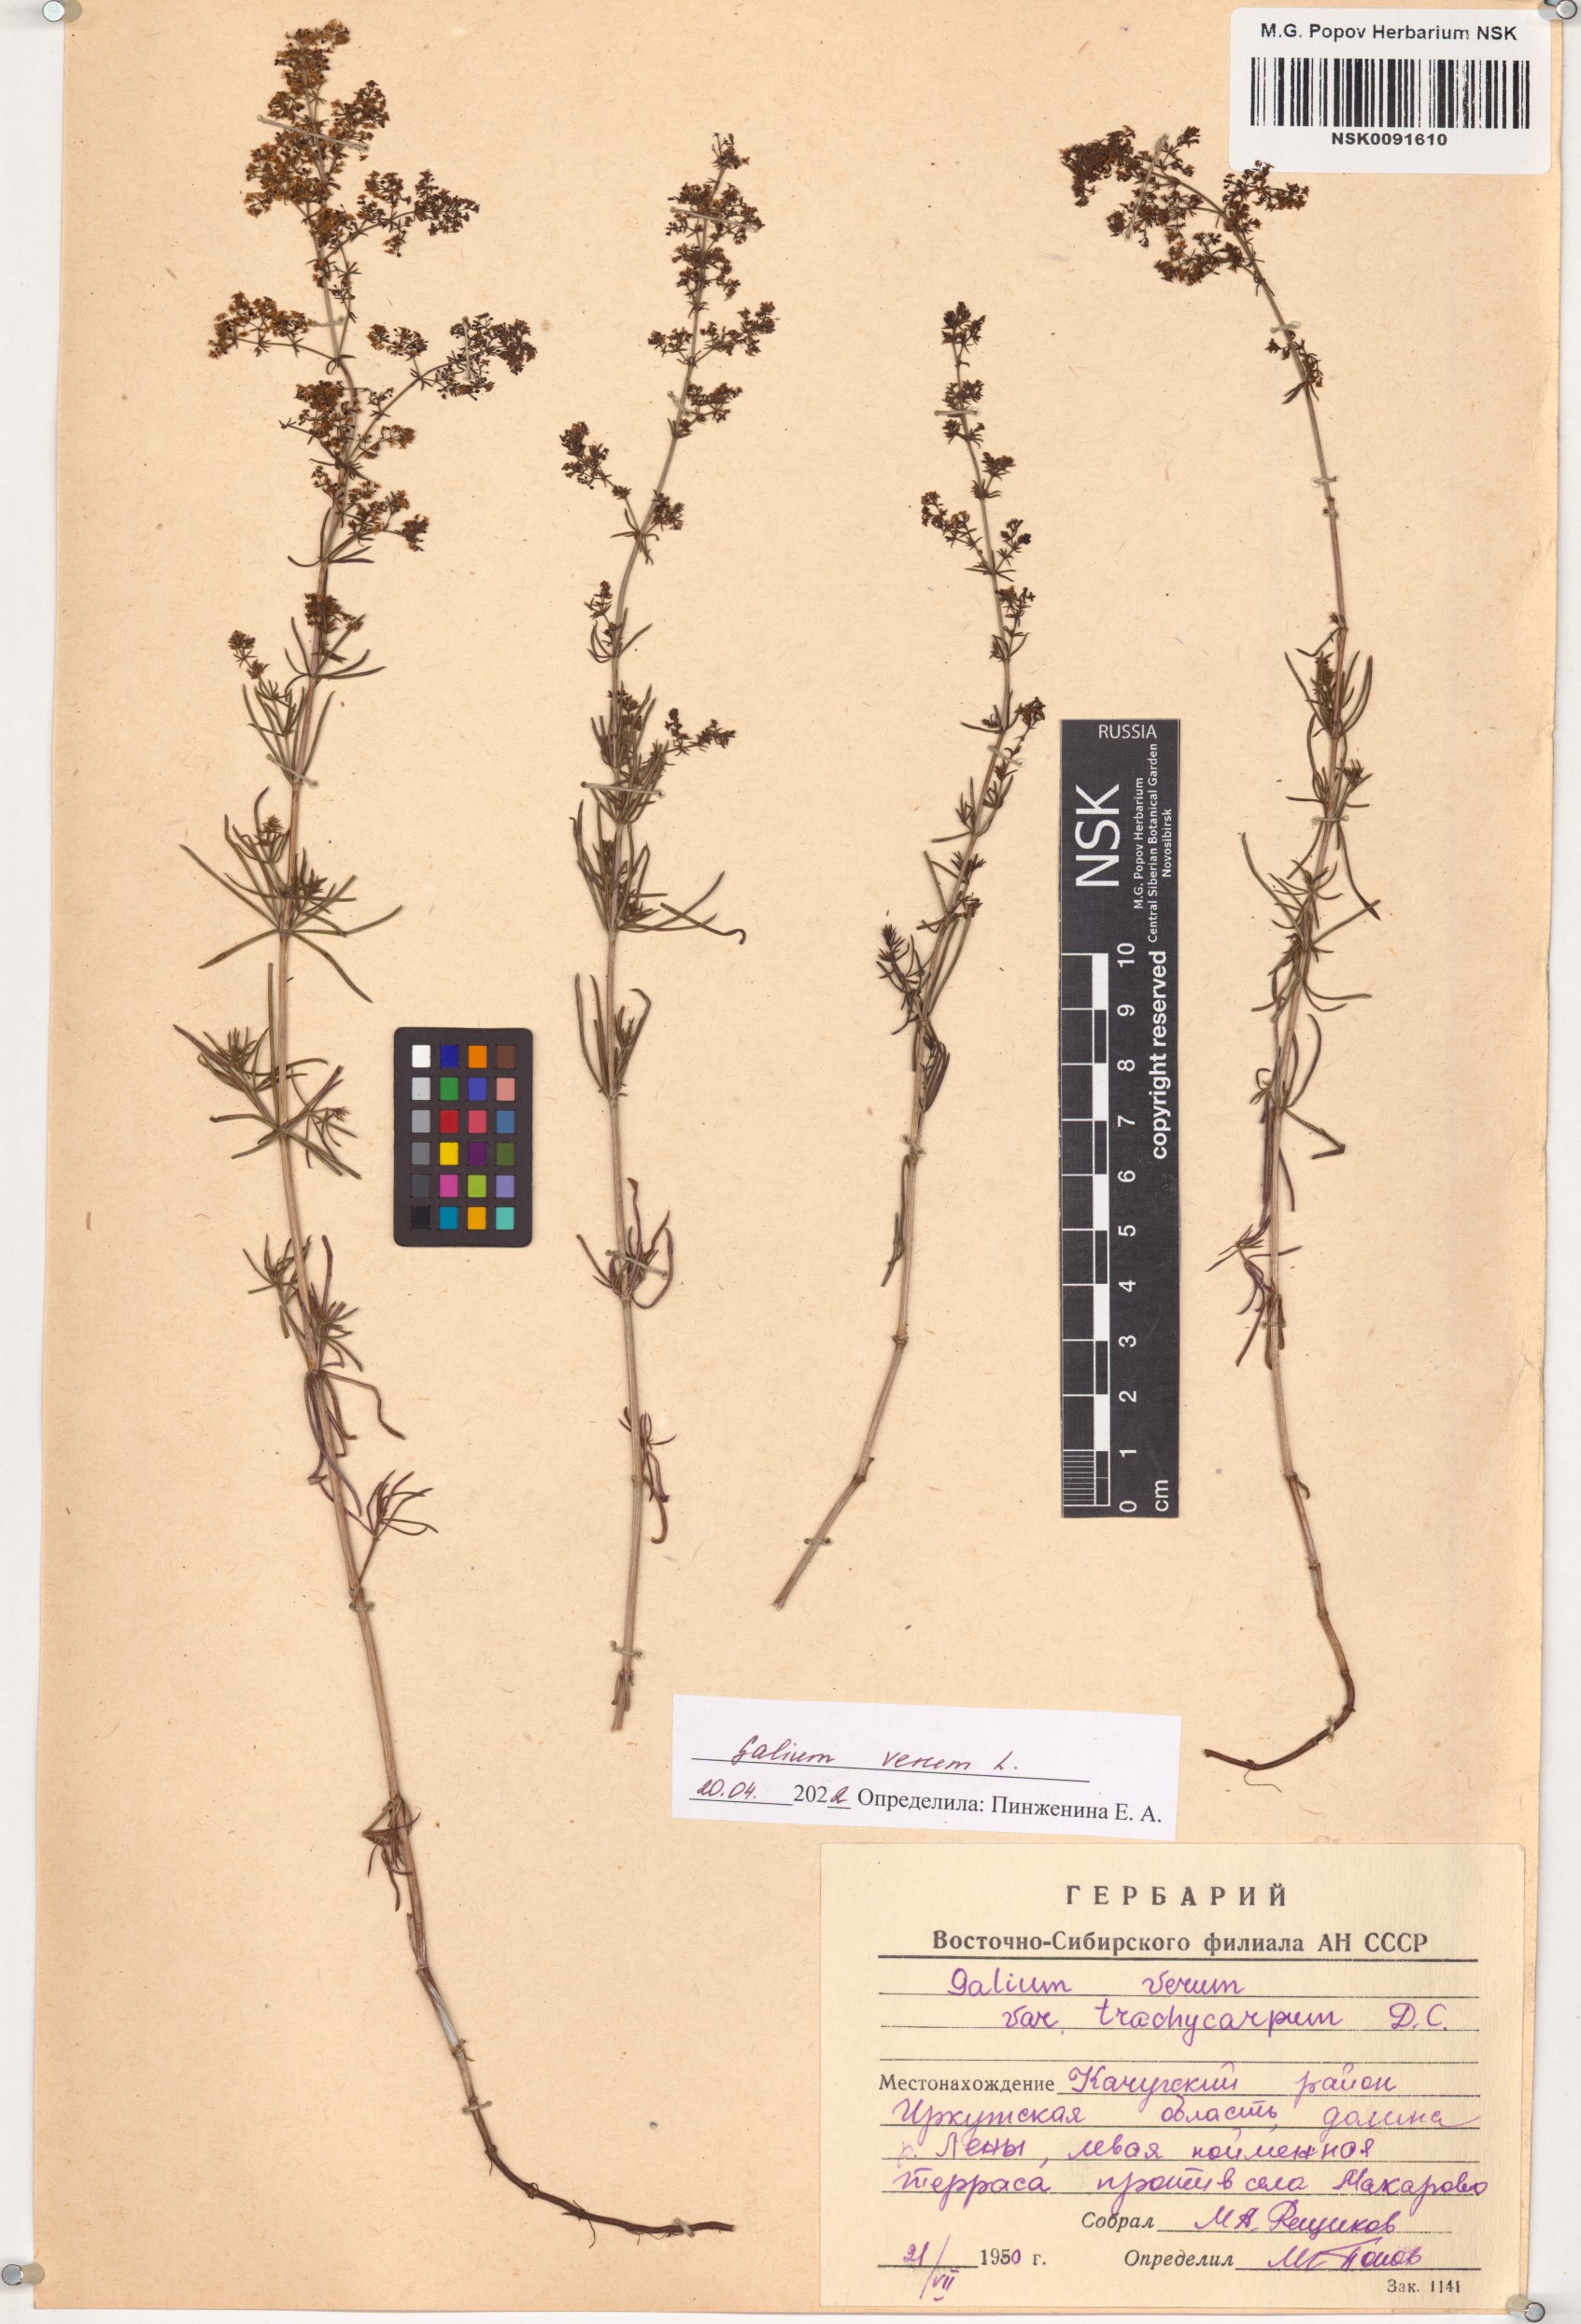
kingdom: Plantae
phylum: Tracheophyta
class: Magnoliopsida
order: Gentianales
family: Rubiaceae
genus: Galium
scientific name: Galium verum
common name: Lady's bedstraw
